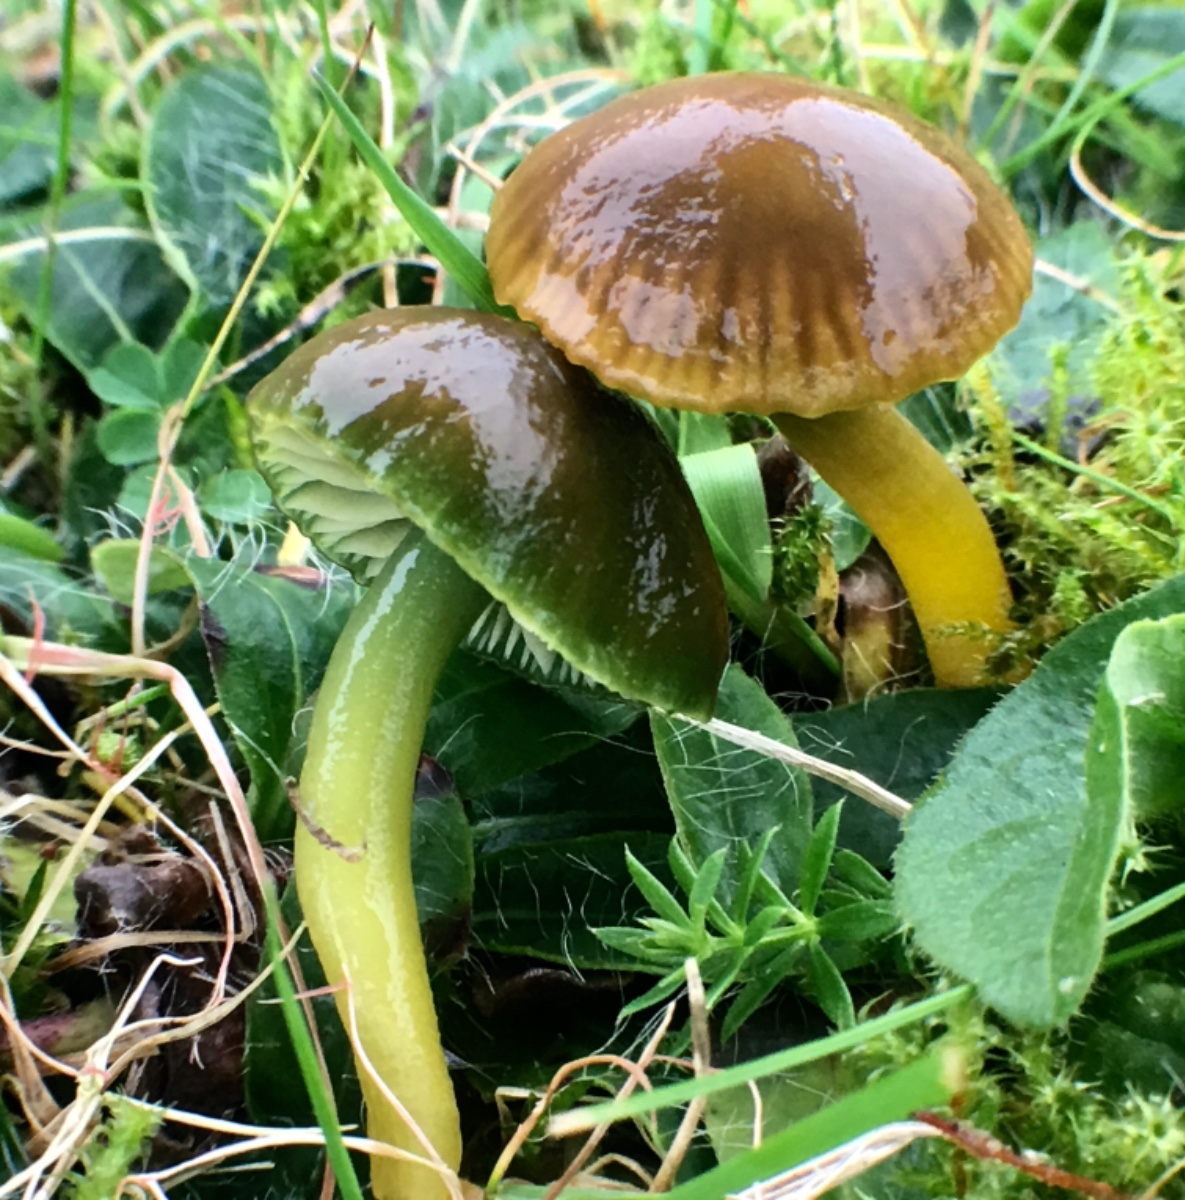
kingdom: Fungi
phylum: Basidiomycota
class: Agaricomycetes
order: Agaricales
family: Hygrophoraceae
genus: Gliophorus
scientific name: Gliophorus psittacinus
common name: papegøje-vokshat
